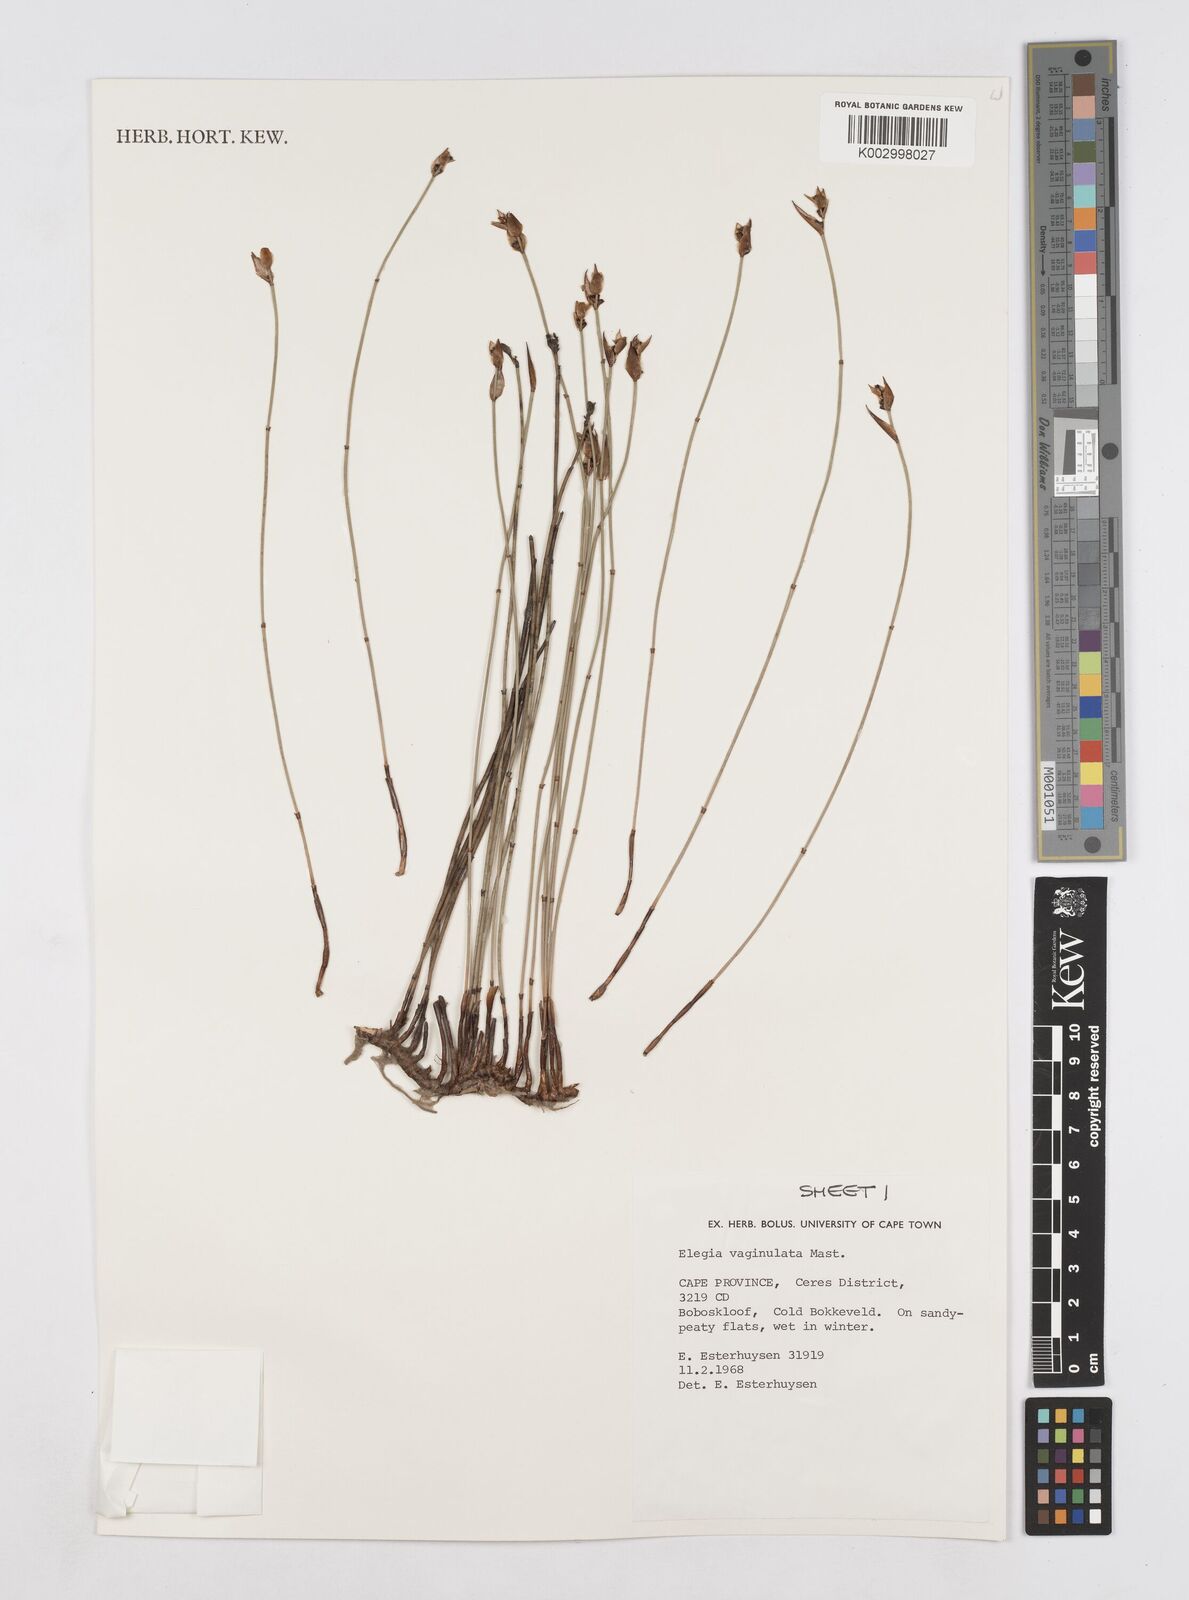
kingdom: Plantae
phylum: Tracheophyta
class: Liliopsida
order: Poales
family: Restionaceae
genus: Elegia
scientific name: Elegia vaginulata
